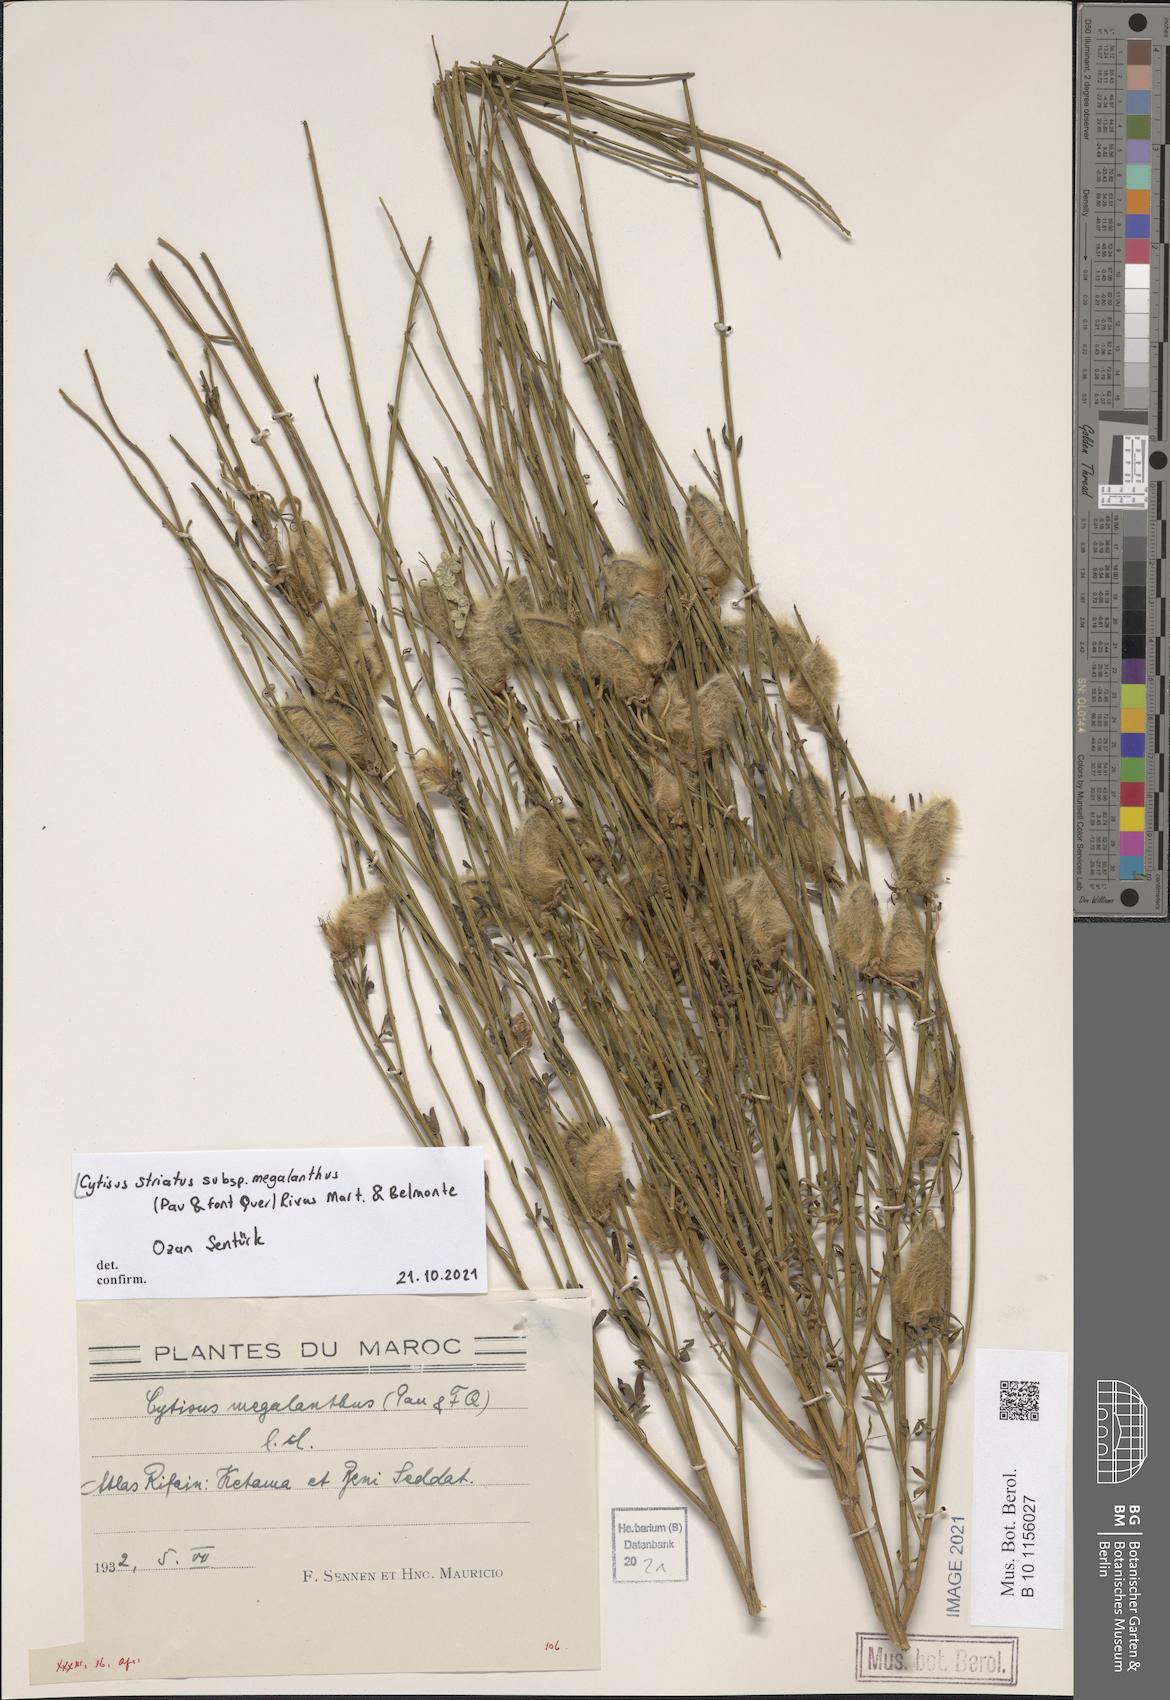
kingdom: Plantae
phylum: Tracheophyta
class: Magnoliopsida
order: Fabales
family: Fabaceae
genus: Cytisus
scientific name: Cytisus striatus
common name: Hairy-fruited broom
